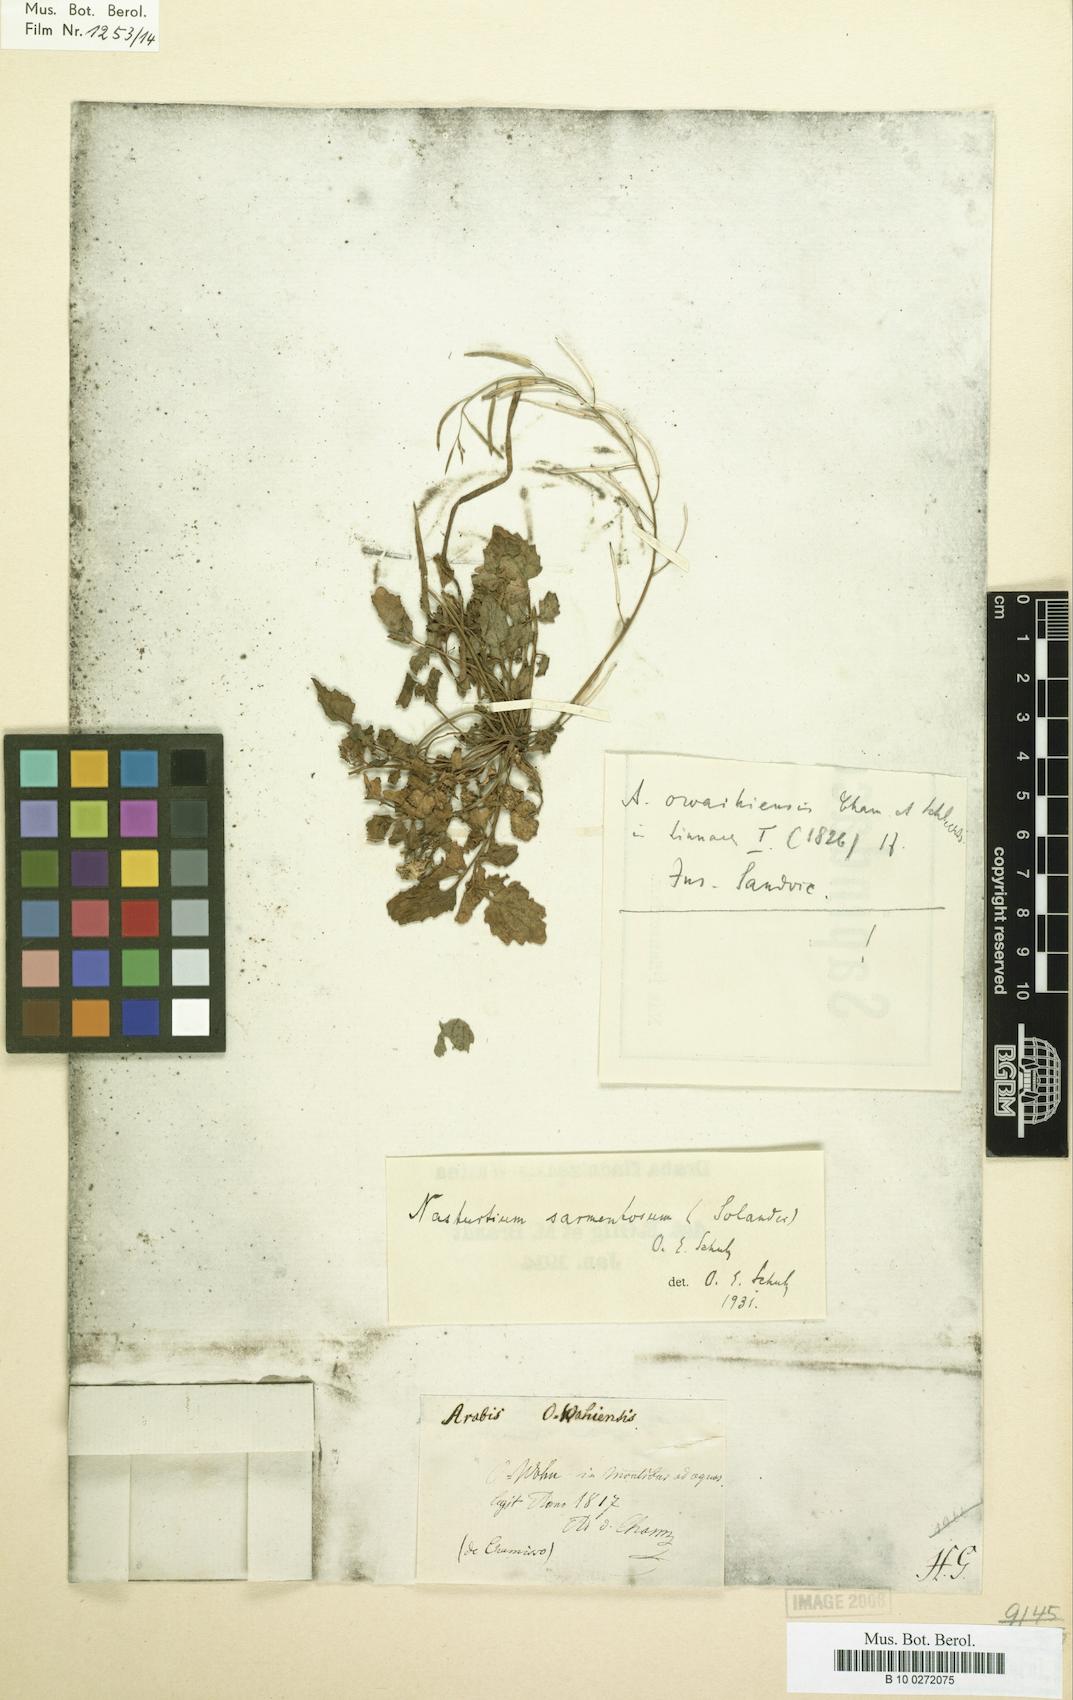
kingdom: Plantae
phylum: Tracheophyta
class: Magnoliopsida
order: Brassicales
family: Brassicaceae
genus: Rorippa
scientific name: Rorippa sarmentosa
